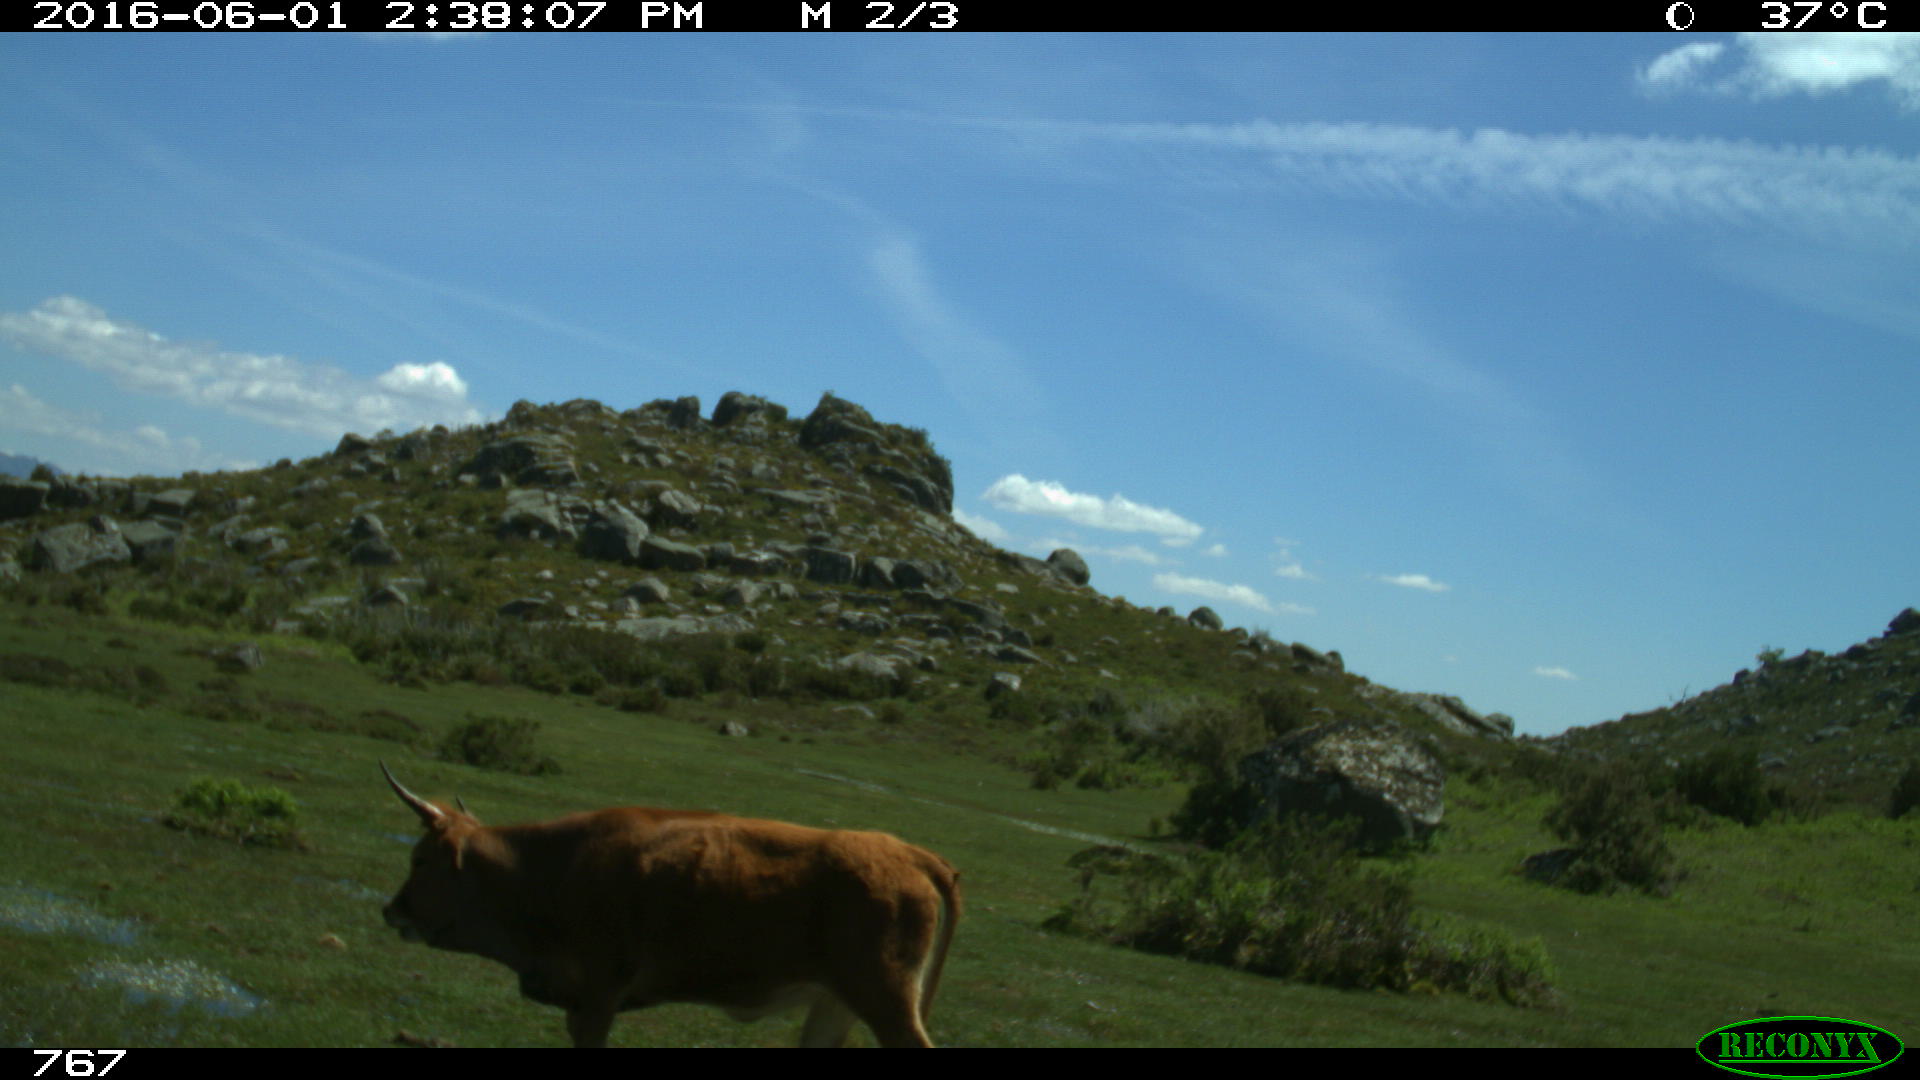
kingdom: Animalia
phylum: Chordata
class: Mammalia
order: Artiodactyla
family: Bovidae
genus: Bos
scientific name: Bos taurus
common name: Domesticated cattle
